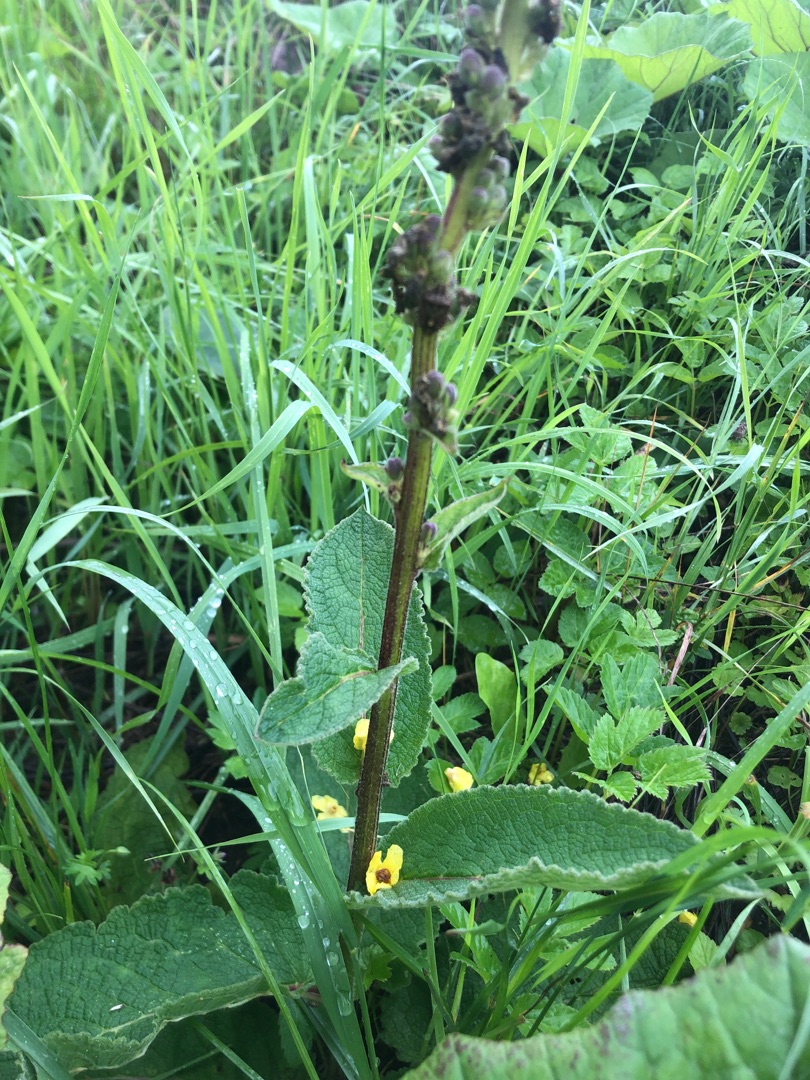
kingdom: Plantae
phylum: Tracheophyta
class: Magnoliopsida
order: Lamiales
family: Scrophulariaceae
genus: Verbascum
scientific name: Verbascum nigrum
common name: Mørk kongelys
